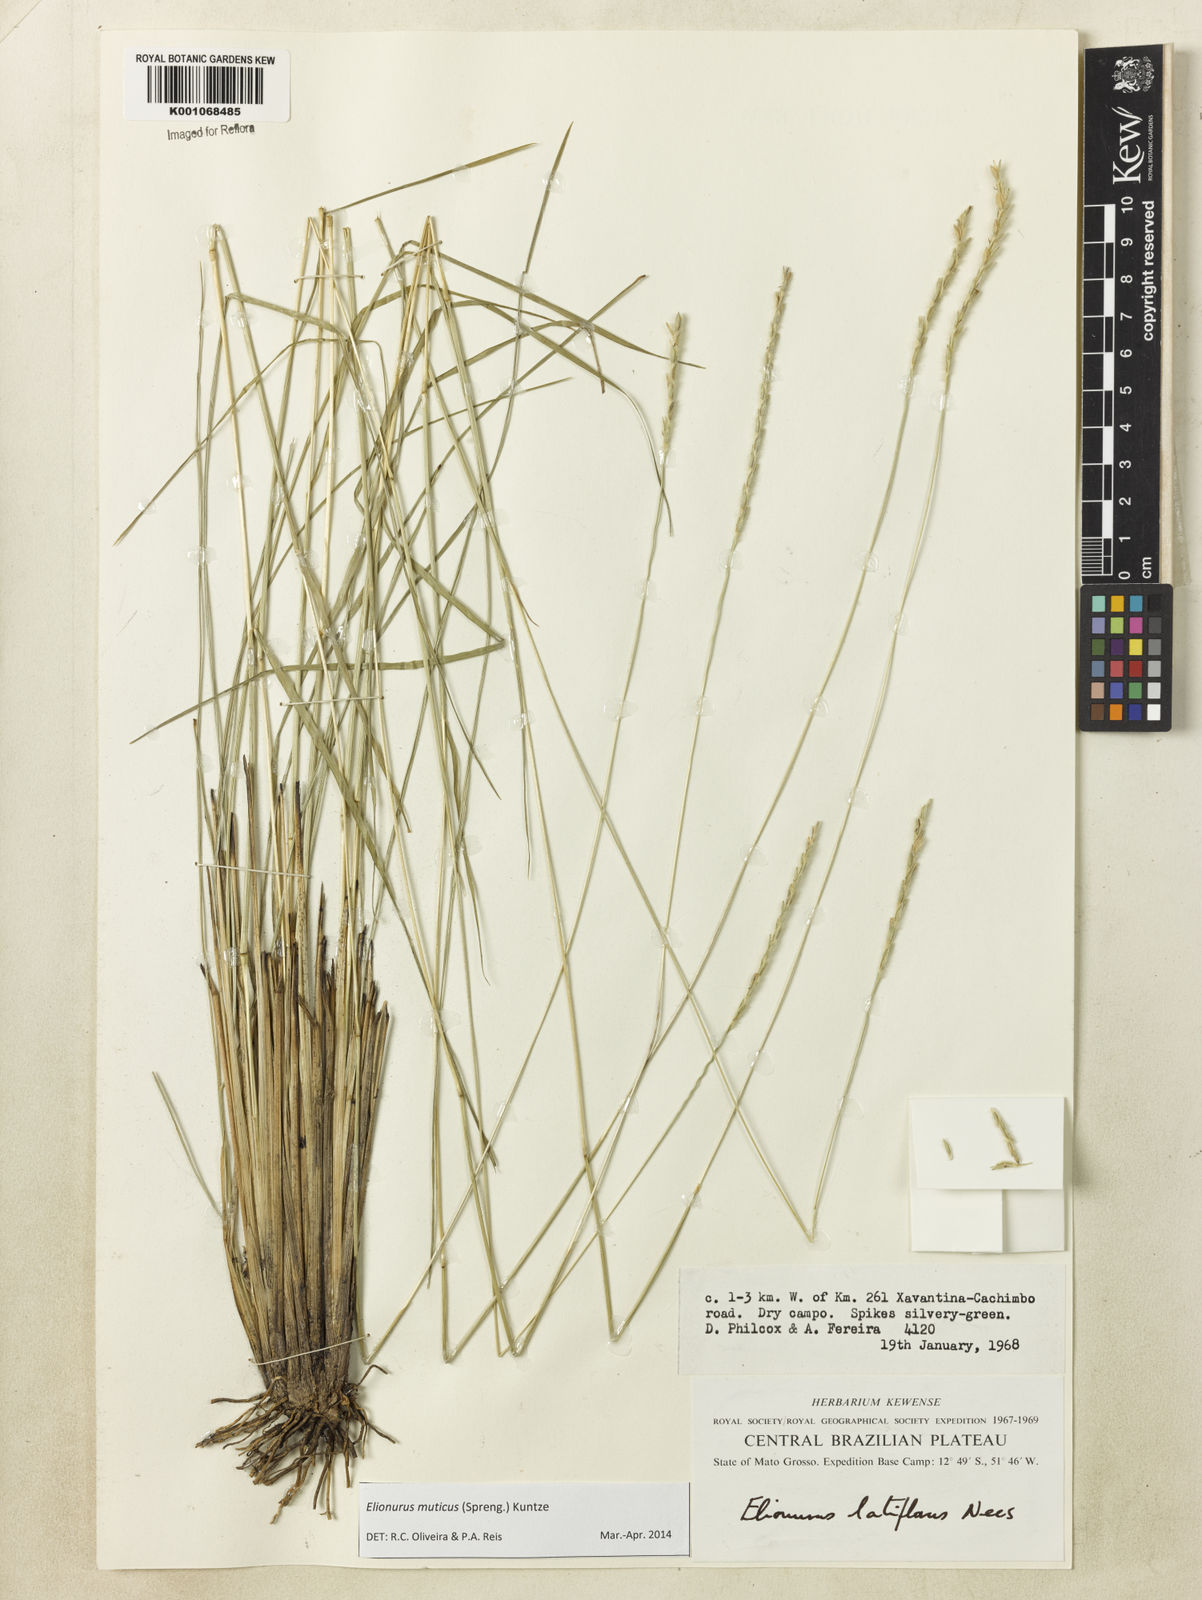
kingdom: Plantae
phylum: Tracheophyta
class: Liliopsida
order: Poales
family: Poaceae
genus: Elionurus
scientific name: Elionurus muticus
